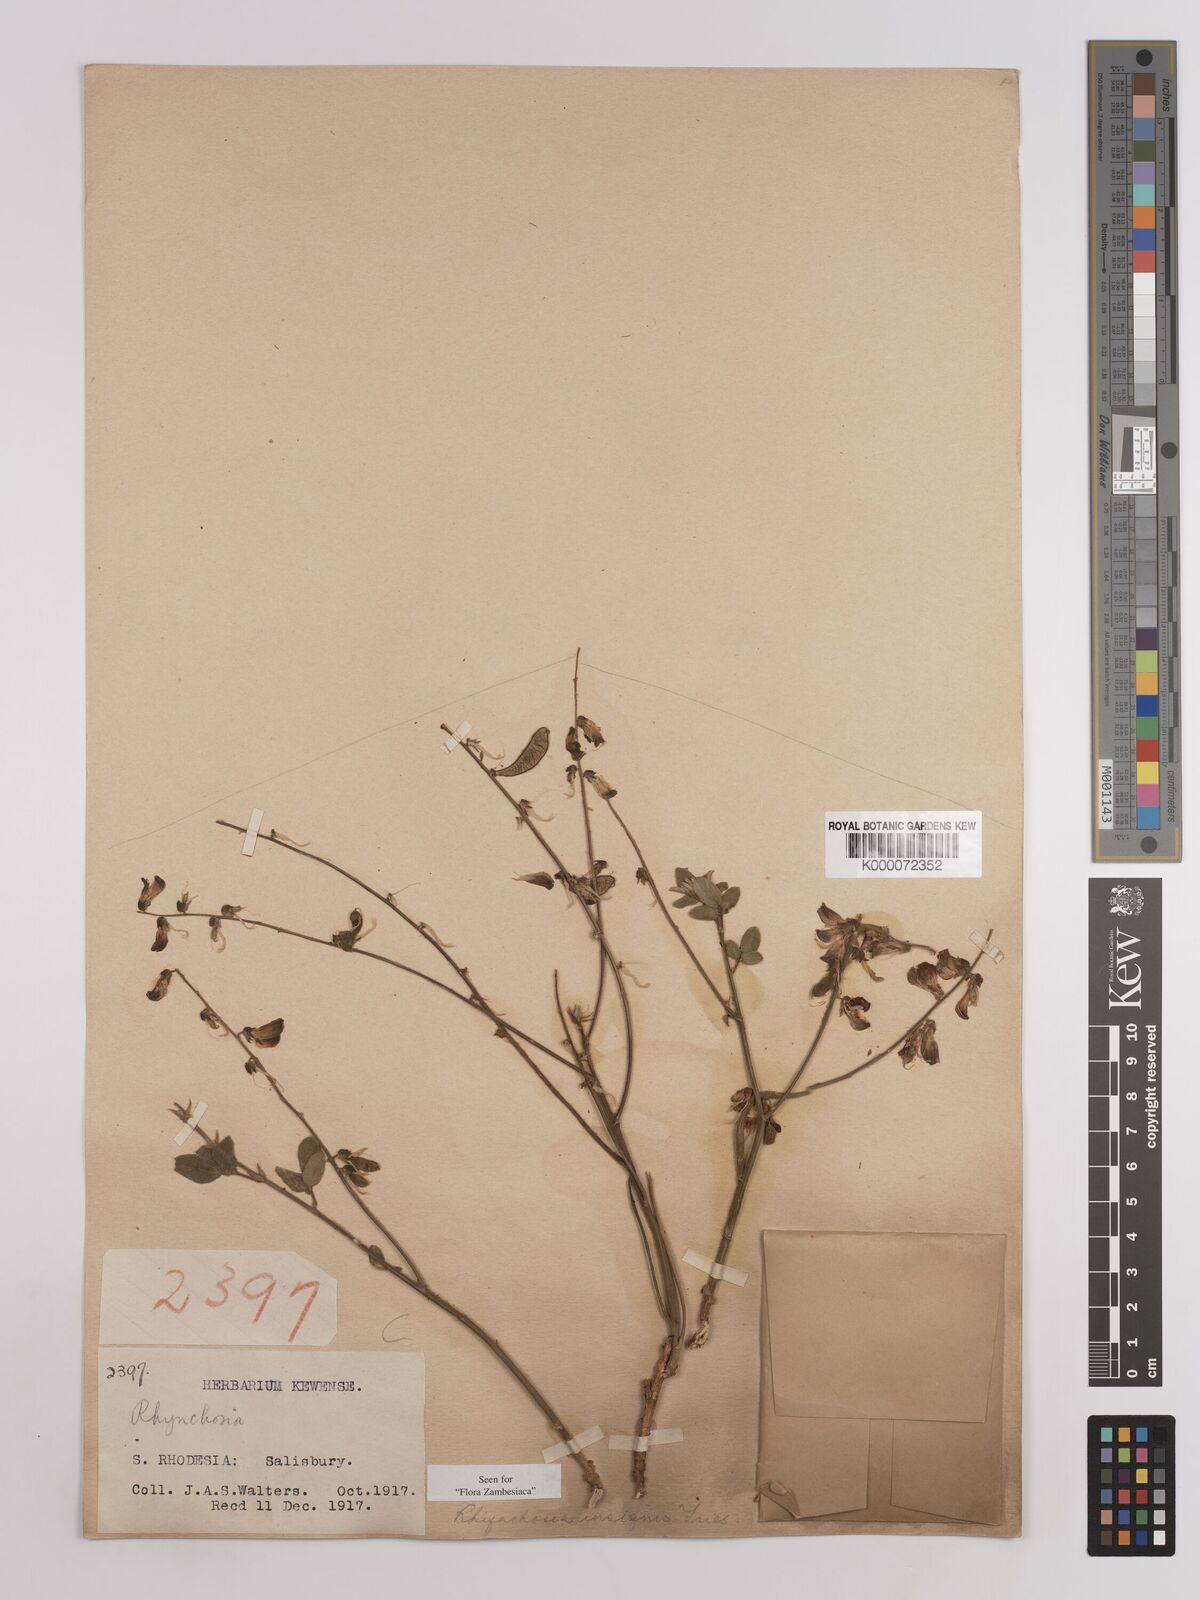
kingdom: Plantae
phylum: Tracheophyta
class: Magnoliopsida
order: Fabales
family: Fabaceae
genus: Rhynchosia
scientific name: Rhynchosia insignis
